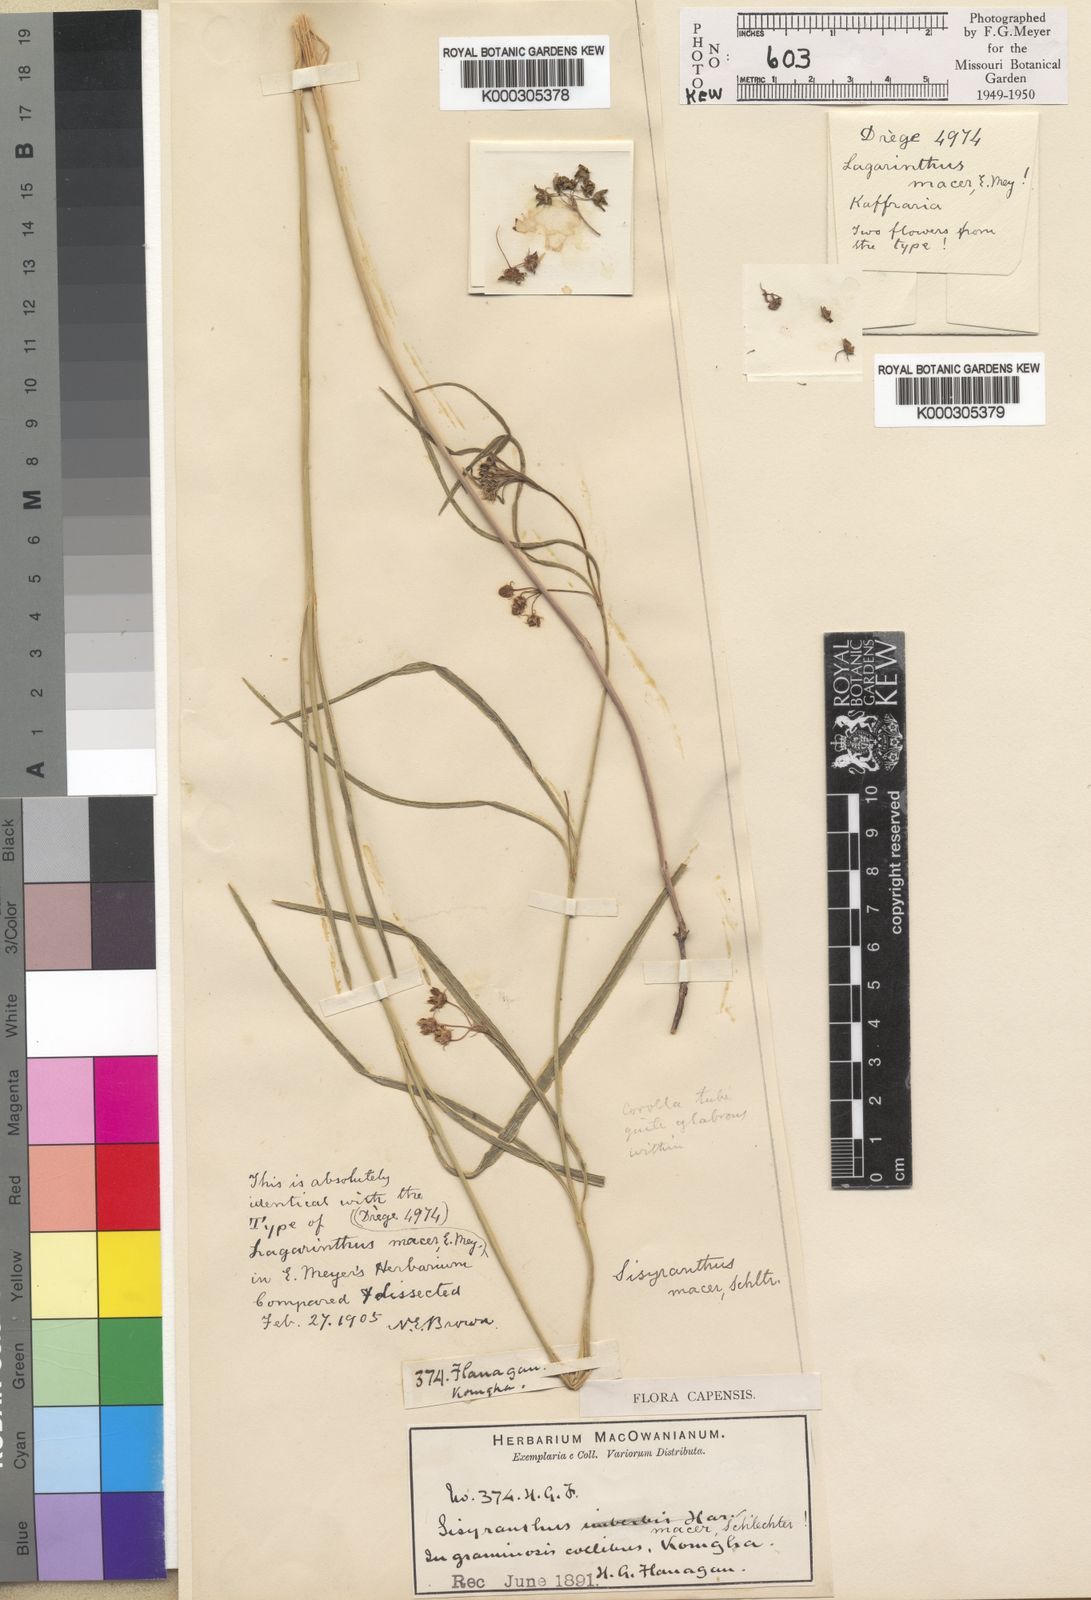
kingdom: Plantae
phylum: Tracheophyta
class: Magnoliopsida
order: Gentianales
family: Apocynaceae
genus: Sisyranthus
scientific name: Sisyranthus macer
